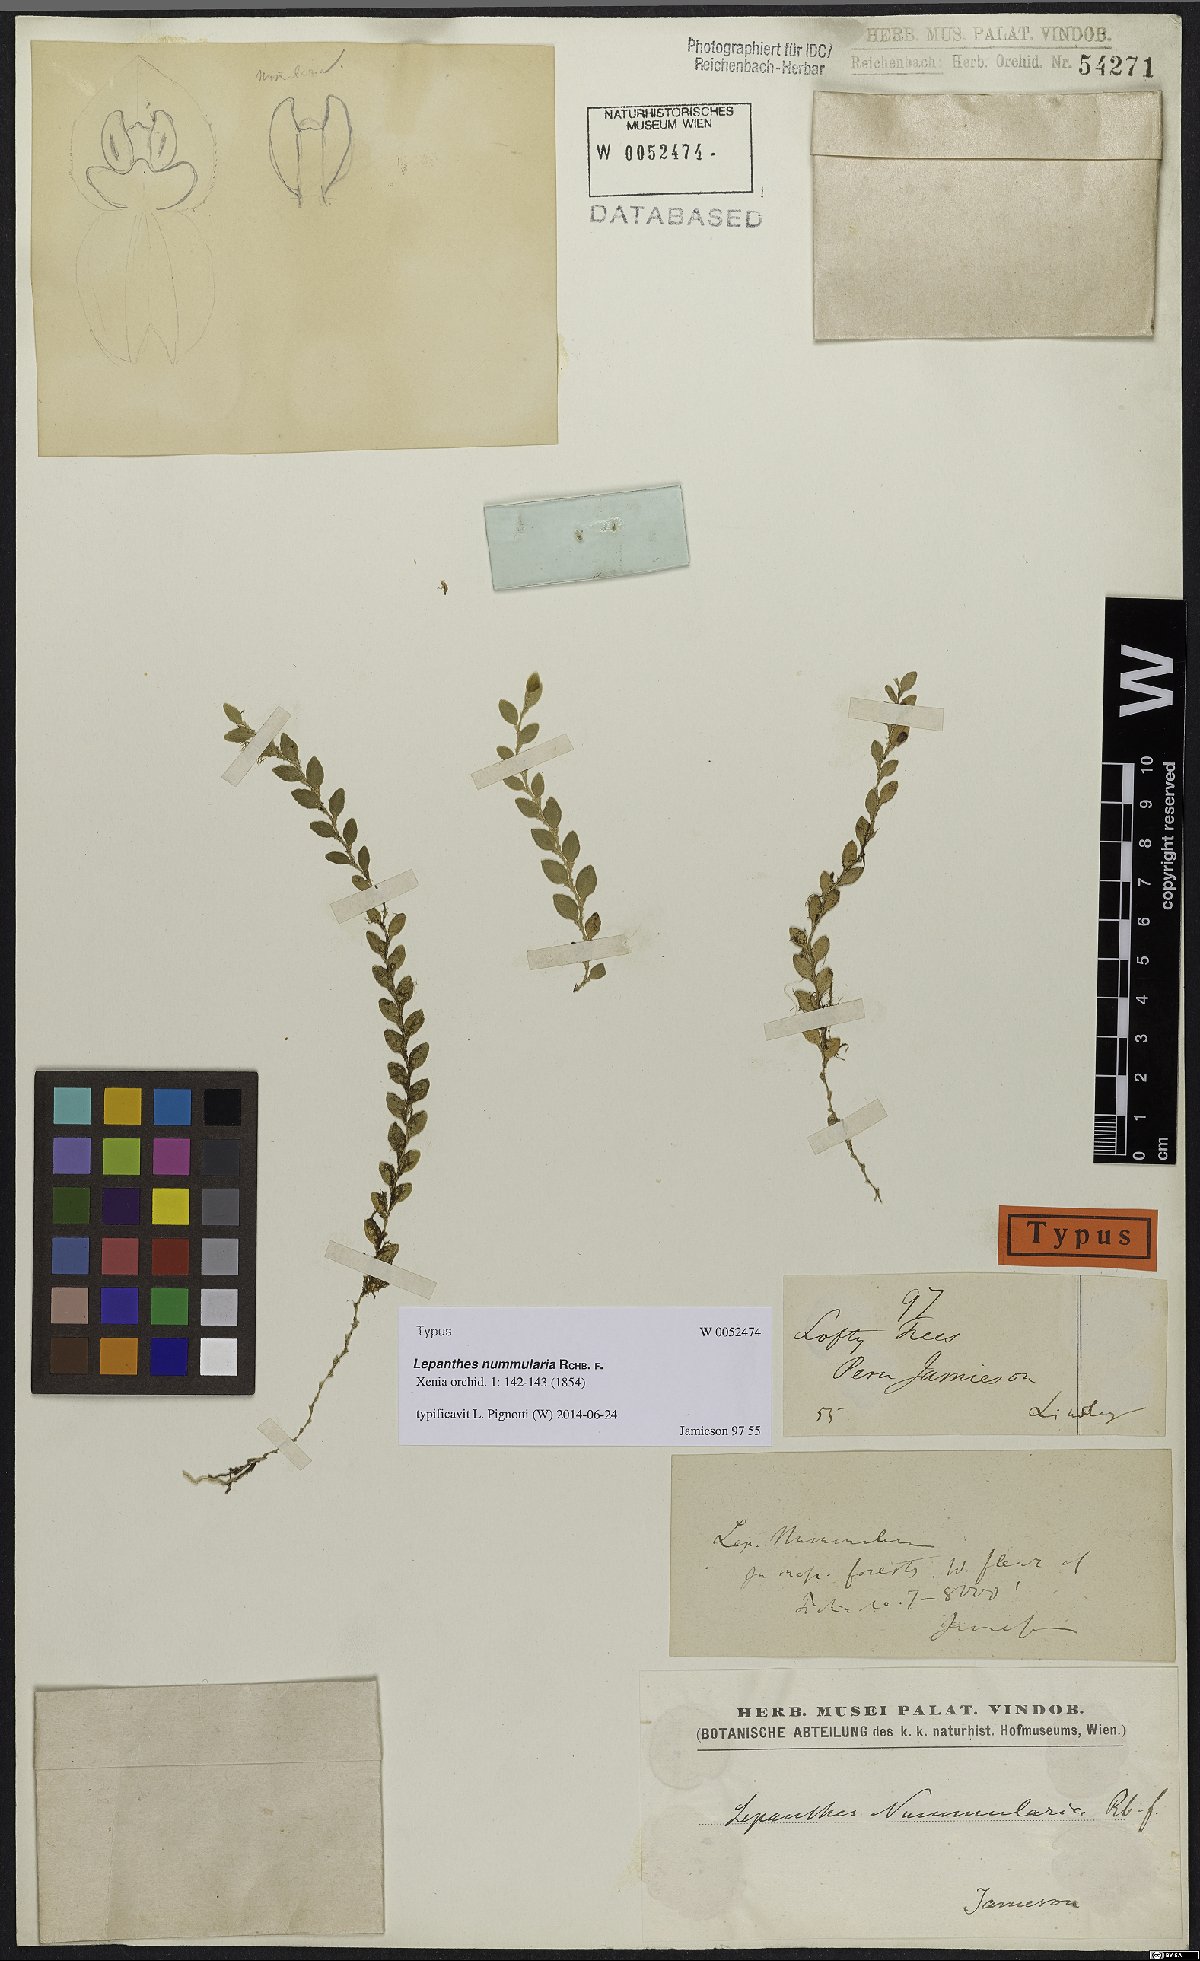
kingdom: Plantae
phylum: Tracheophyta
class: Liliopsida
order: Asparagales
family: Orchidaceae
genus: Andinia
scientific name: Andinia nummularia
